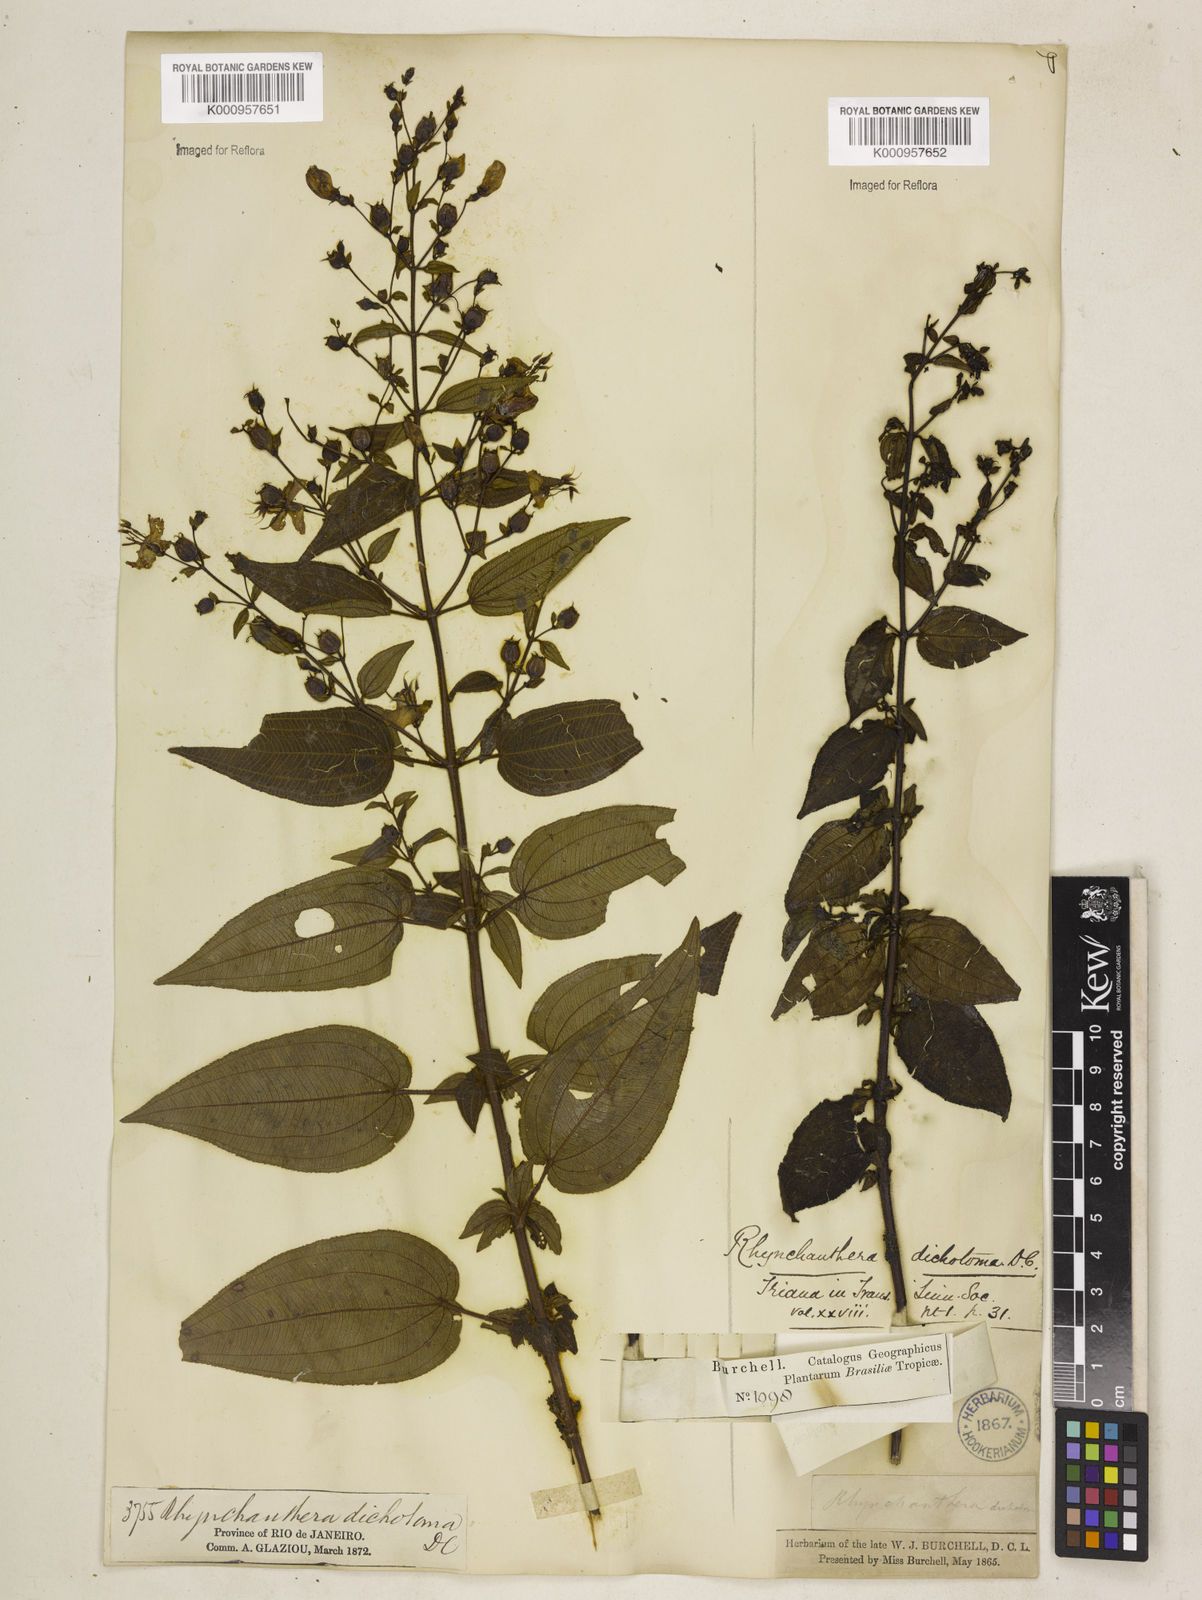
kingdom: Plantae
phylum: Tracheophyta
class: Magnoliopsida
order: Myrtales
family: Melastomataceae
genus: Rhynchanthera
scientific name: Rhynchanthera dichotoma
